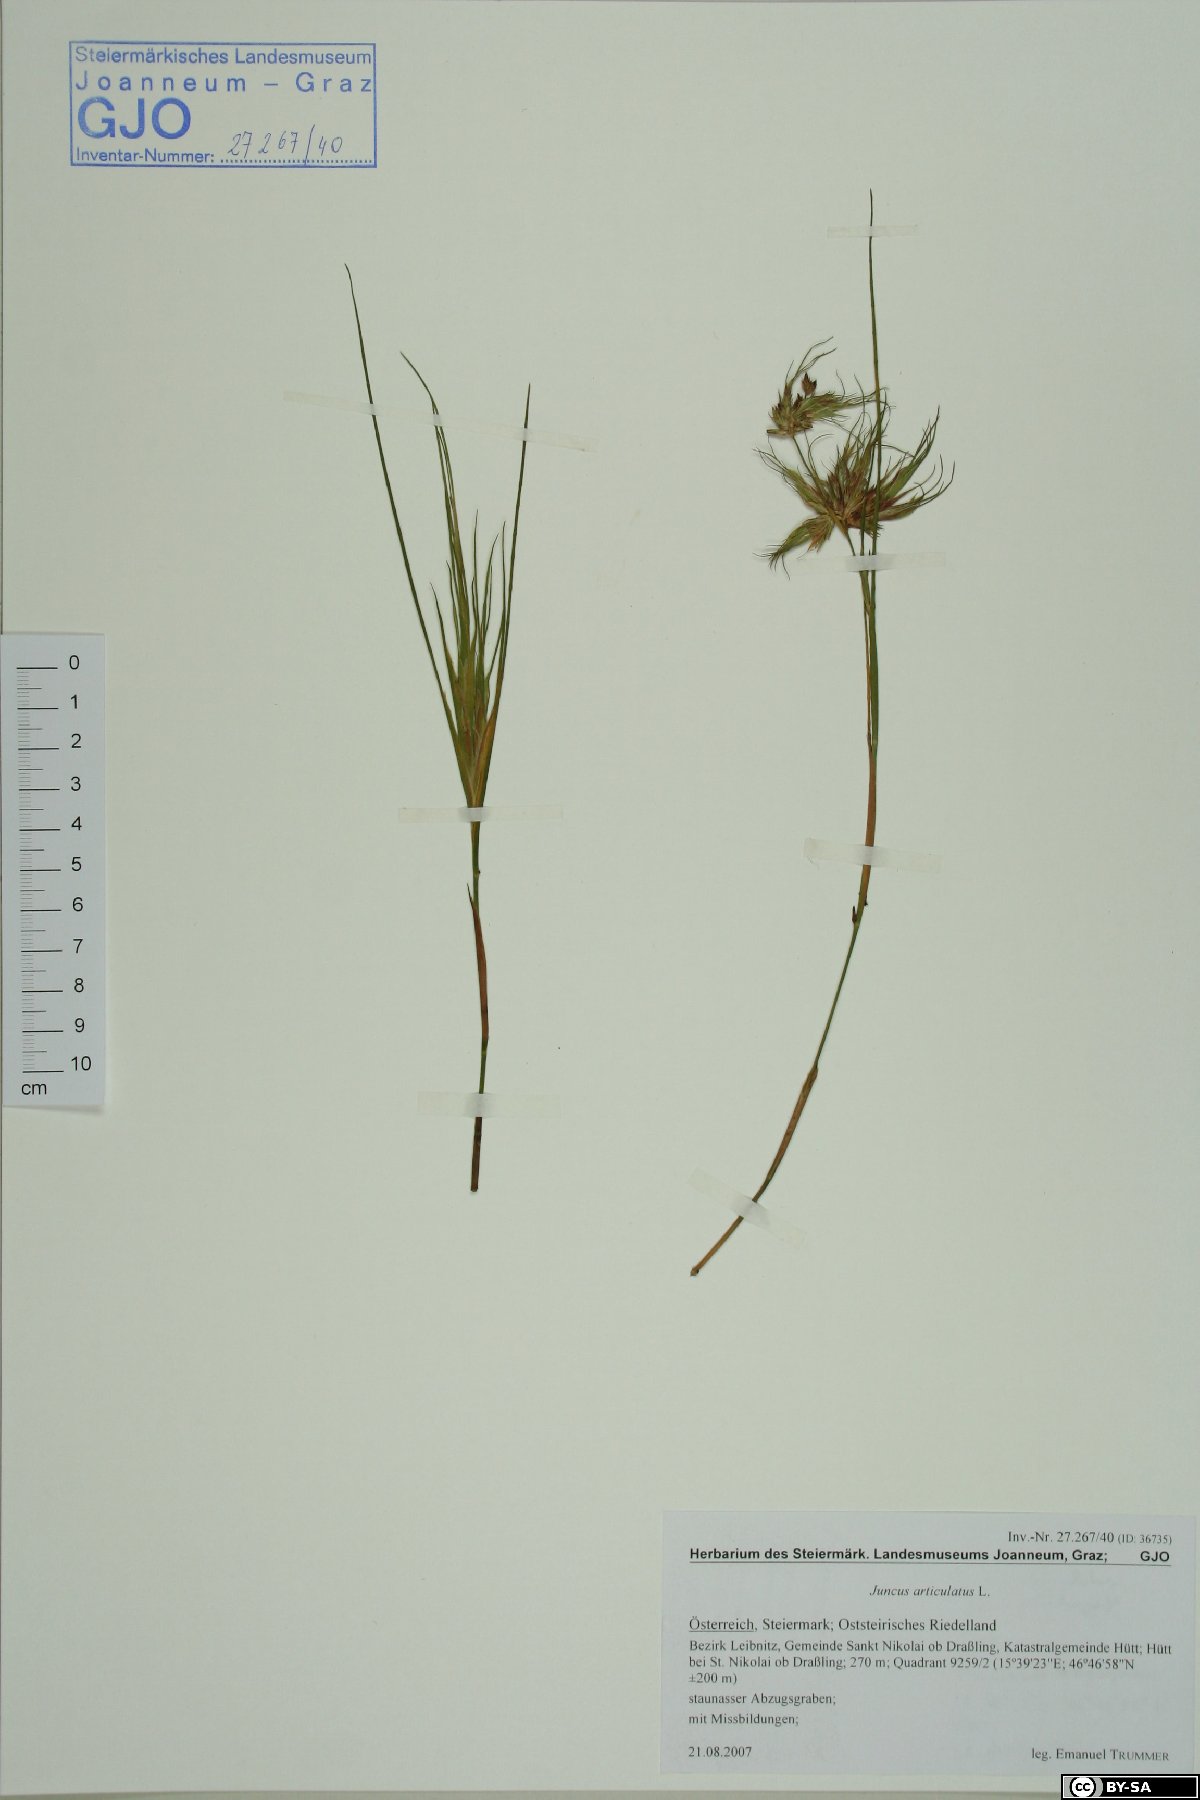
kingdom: Plantae
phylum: Tracheophyta
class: Liliopsida
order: Poales
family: Juncaceae
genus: Juncus
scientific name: Juncus articulatus
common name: Jointed rush
